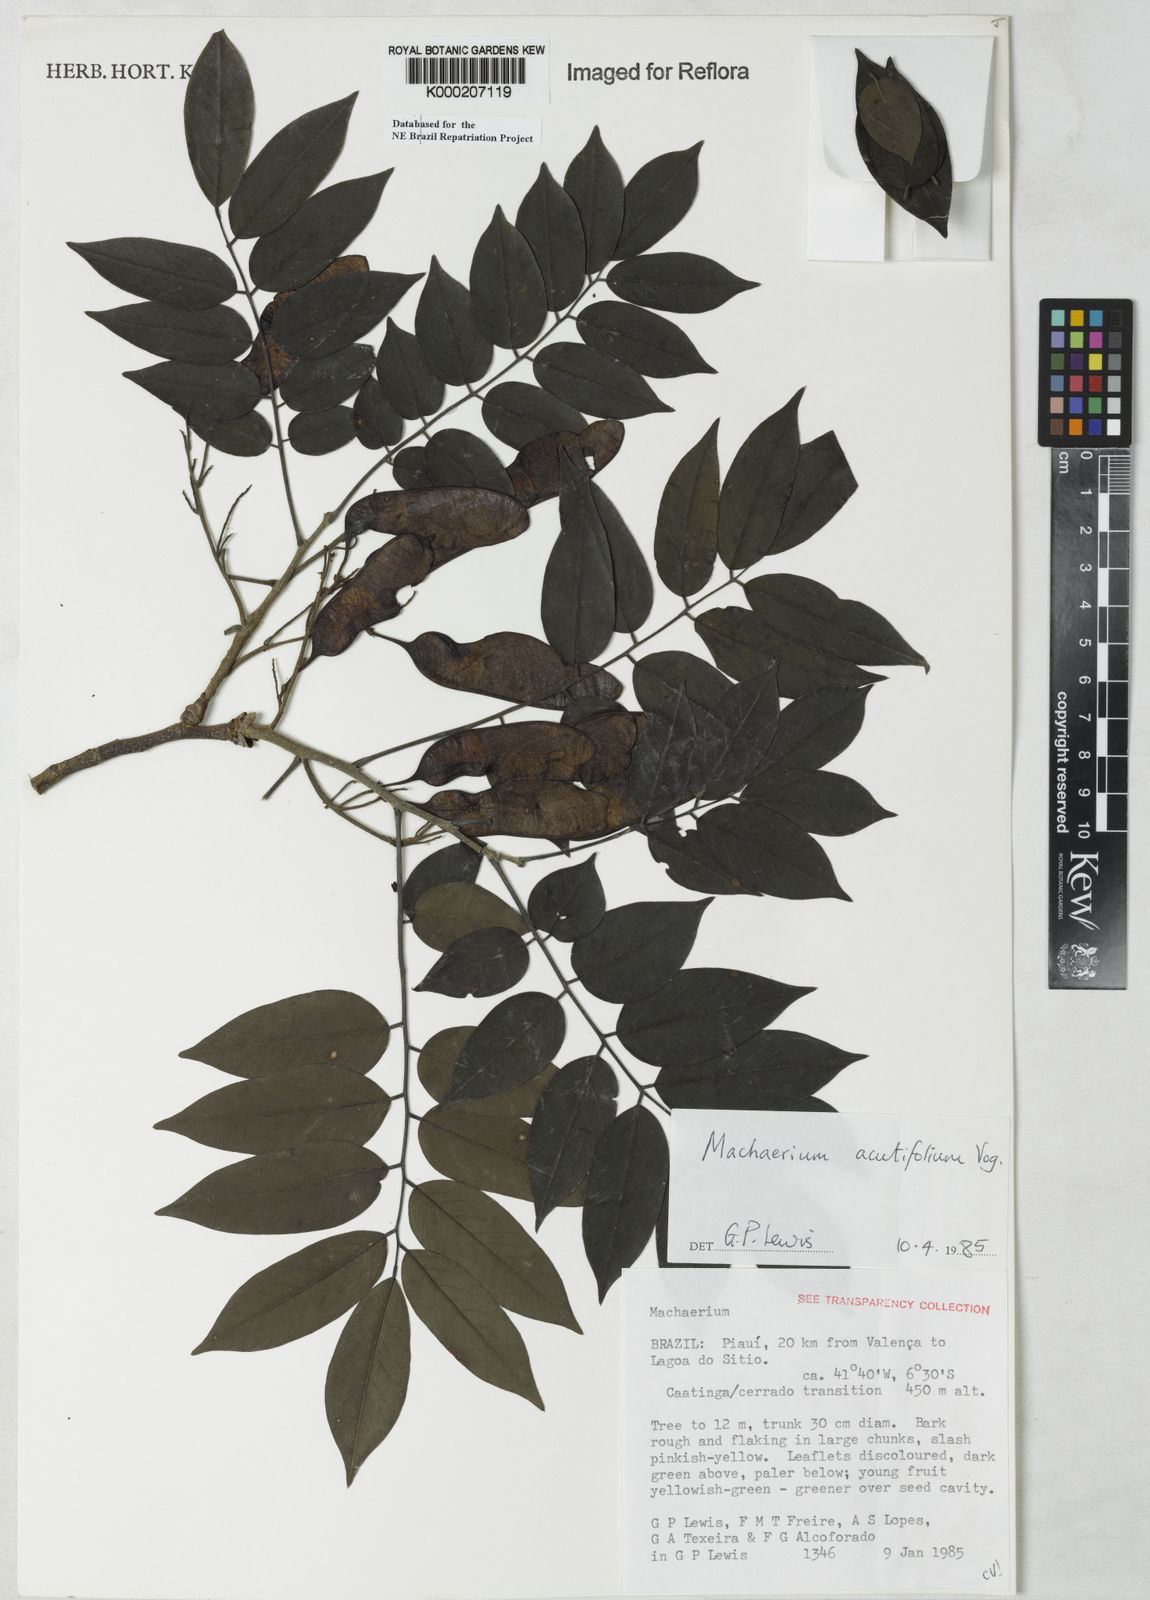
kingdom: Plantae
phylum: Tracheophyta
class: Magnoliopsida
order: Fabales
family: Fabaceae
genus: Machaerium
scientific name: Machaerium acutifolium
